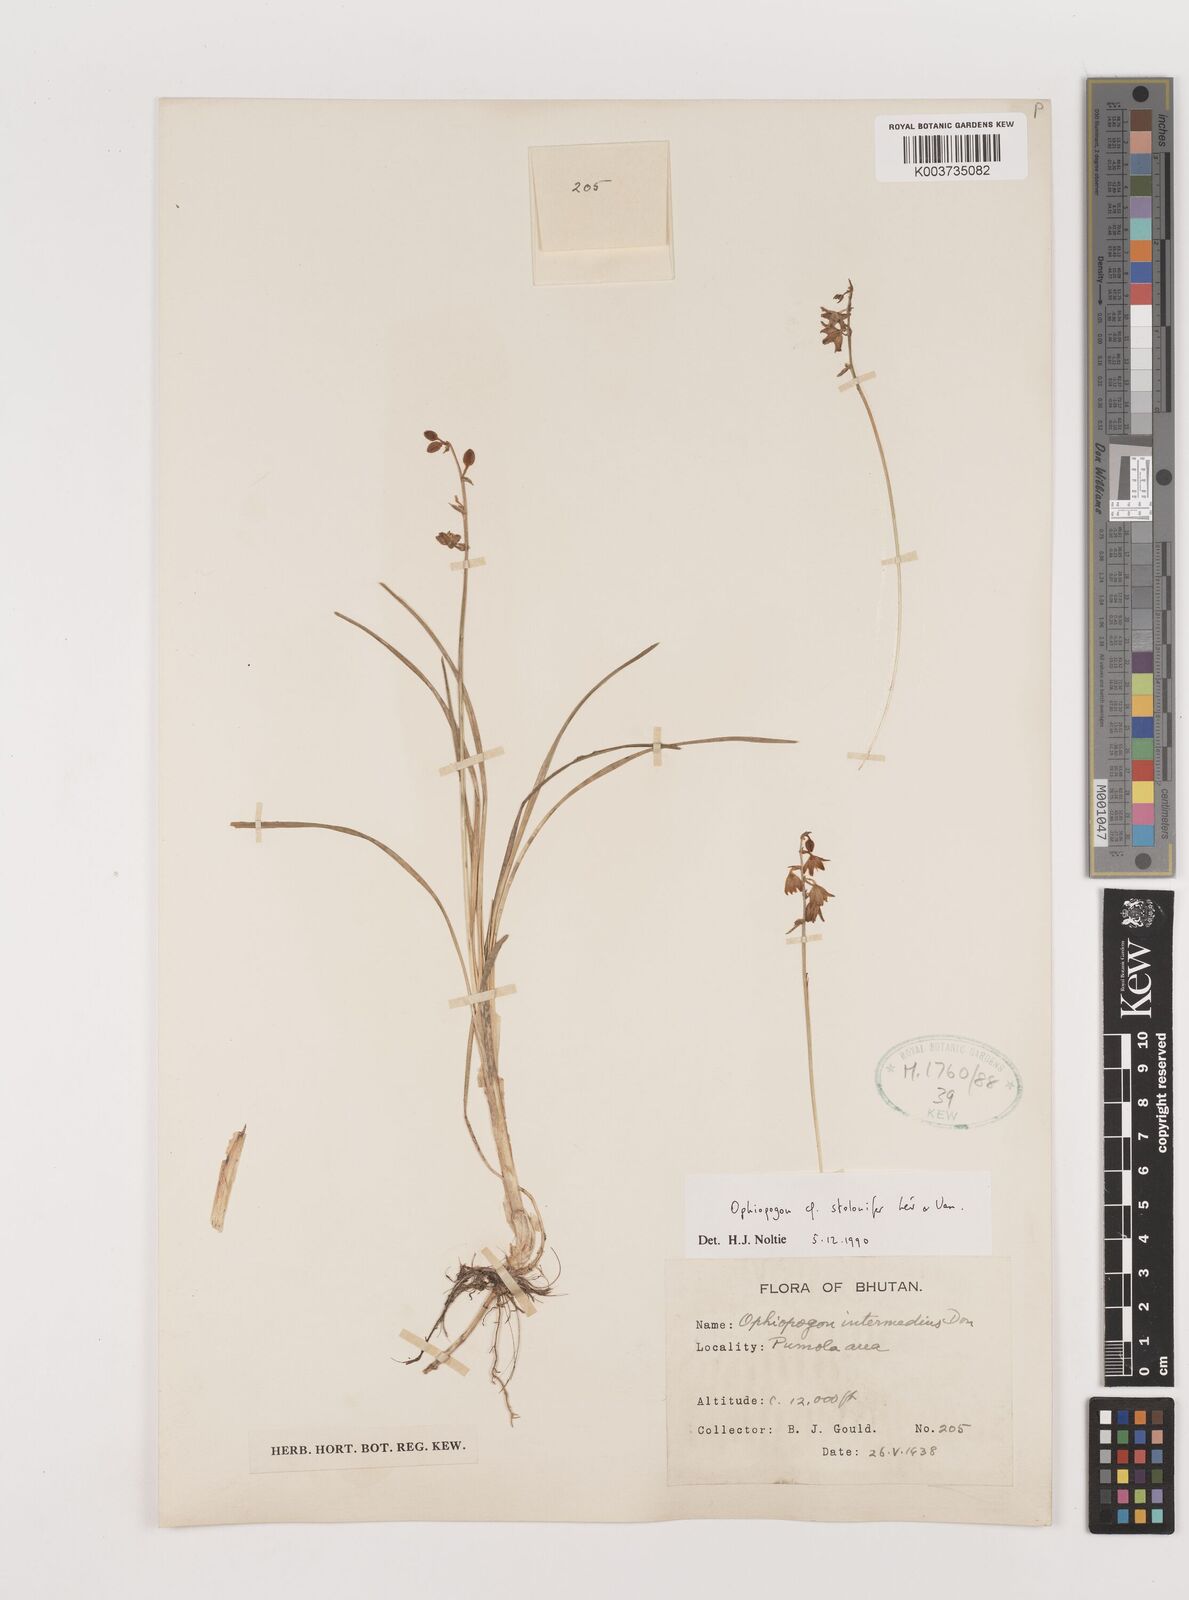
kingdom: Plantae
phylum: Tracheophyta
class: Liliopsida
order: Asparagales
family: Asparagaceae
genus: Ophiopogon
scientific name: Ophiopogon japonicus
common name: Dwarf lilyturf
